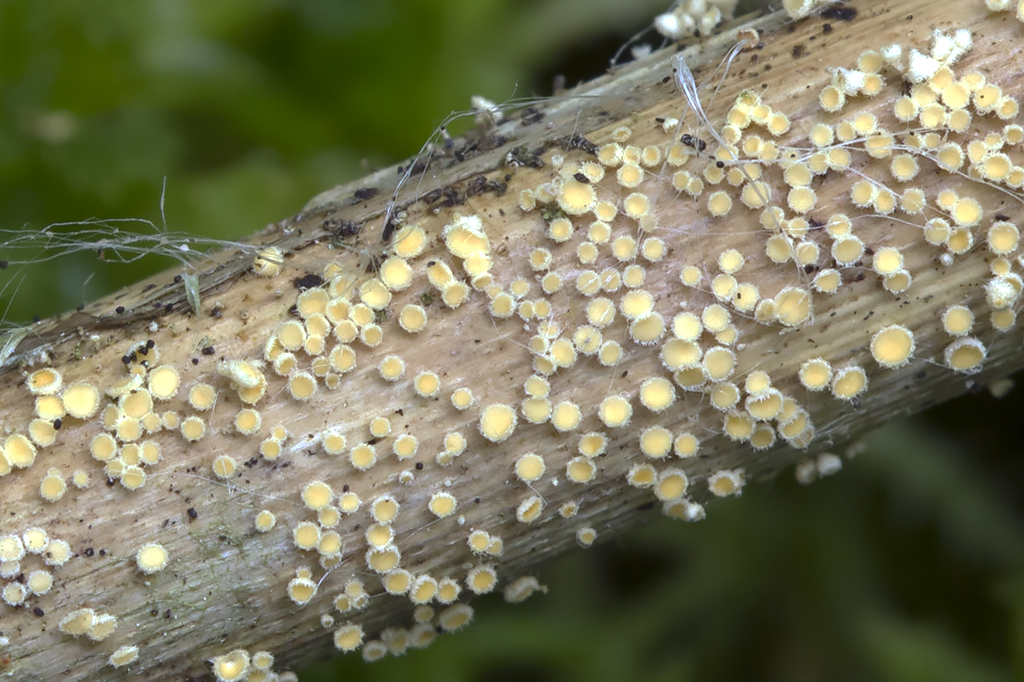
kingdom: Fungi
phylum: Ascomycota
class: Leotiomycetes
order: Helotiales
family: Lachnaceae
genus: Albotricha
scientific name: Albotricha acutipila
